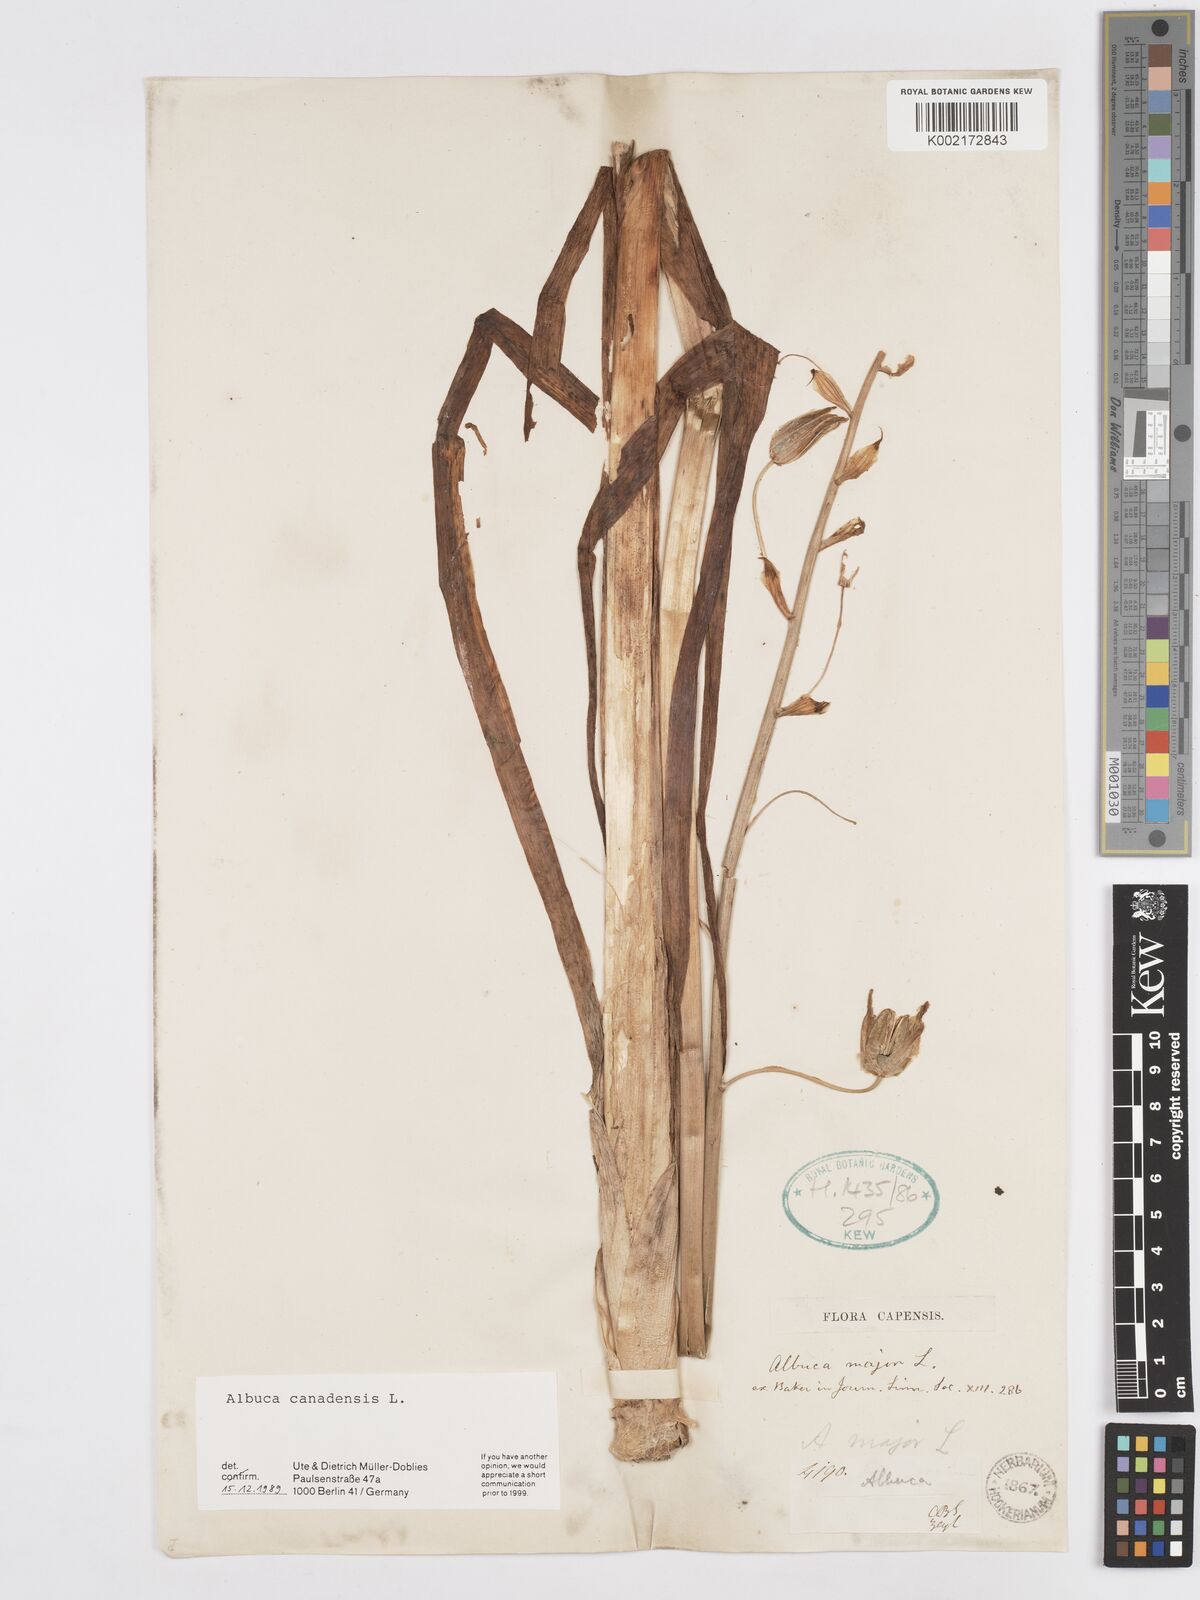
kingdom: Plantae
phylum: Tracheophyta
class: Liliopsida
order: Asparagales
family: Asparagaceae
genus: Albuca
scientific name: Albuca canadensis
